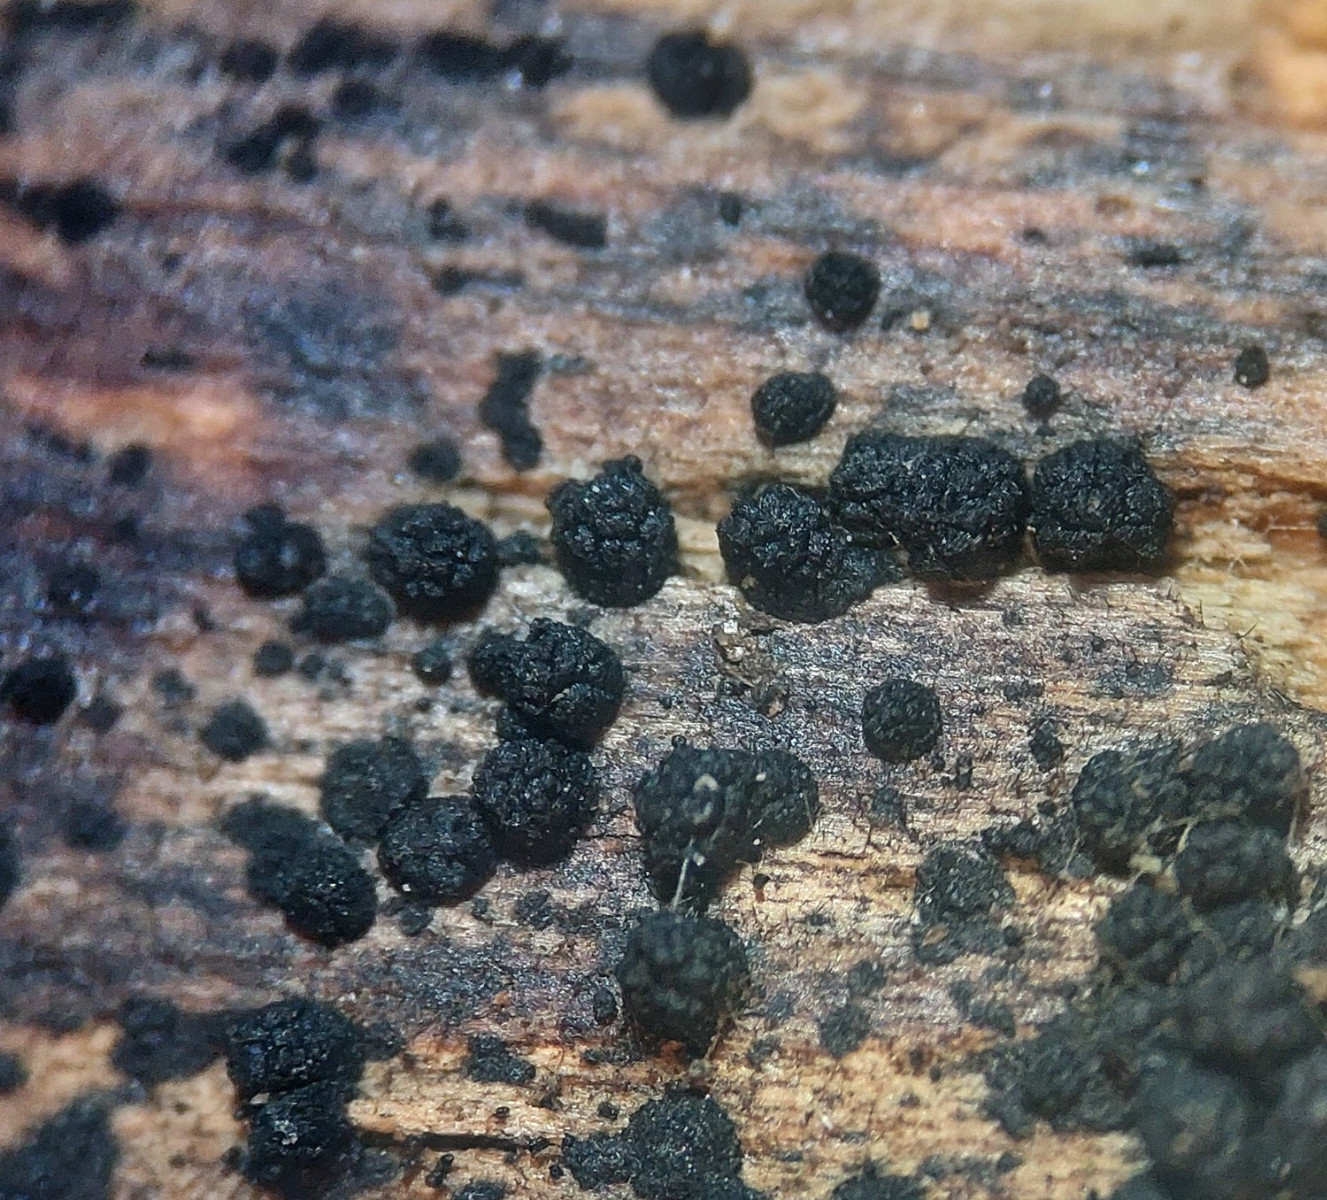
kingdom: Fungi
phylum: Ascomycota
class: Sordariomycetes
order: Coronophorales
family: Bertiaceae
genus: Bertia
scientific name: Bertia moriformis
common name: almindelig morbærkerne
